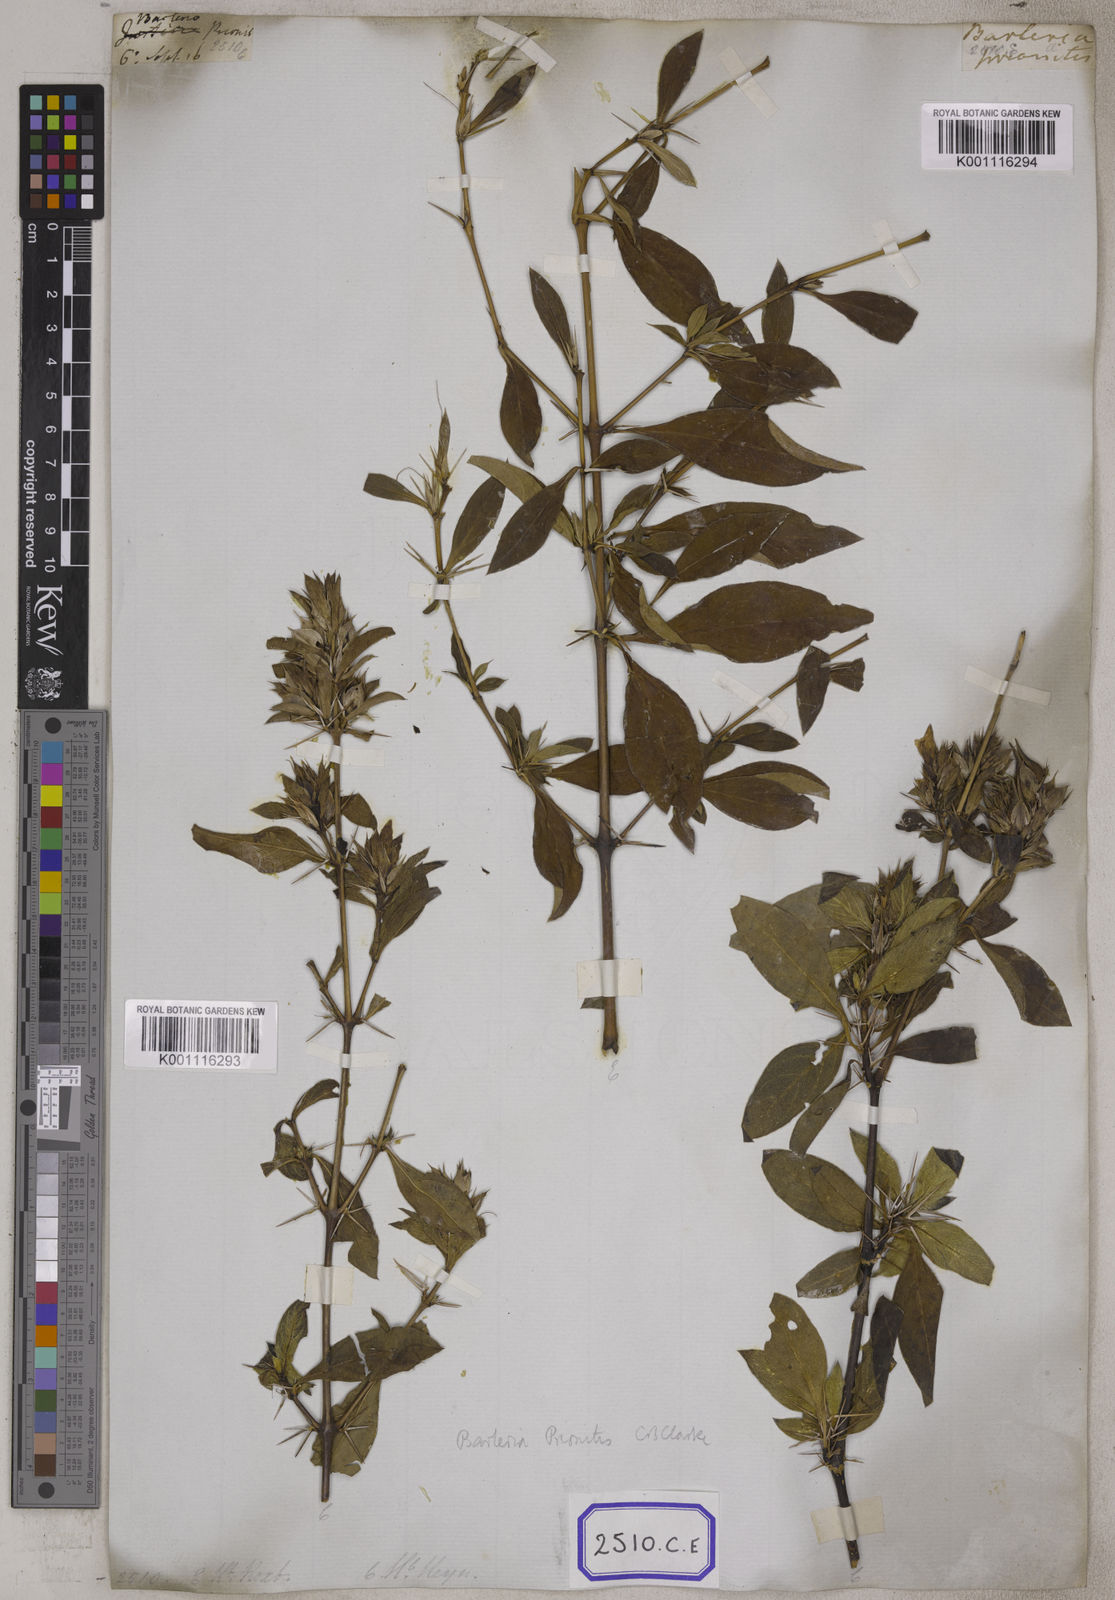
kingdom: Plantae
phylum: Tracheophyta
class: Magnoliopsida
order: Lamiales
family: Acanthaceae
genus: Barleria
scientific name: Barleria prionitis
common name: Barleria
